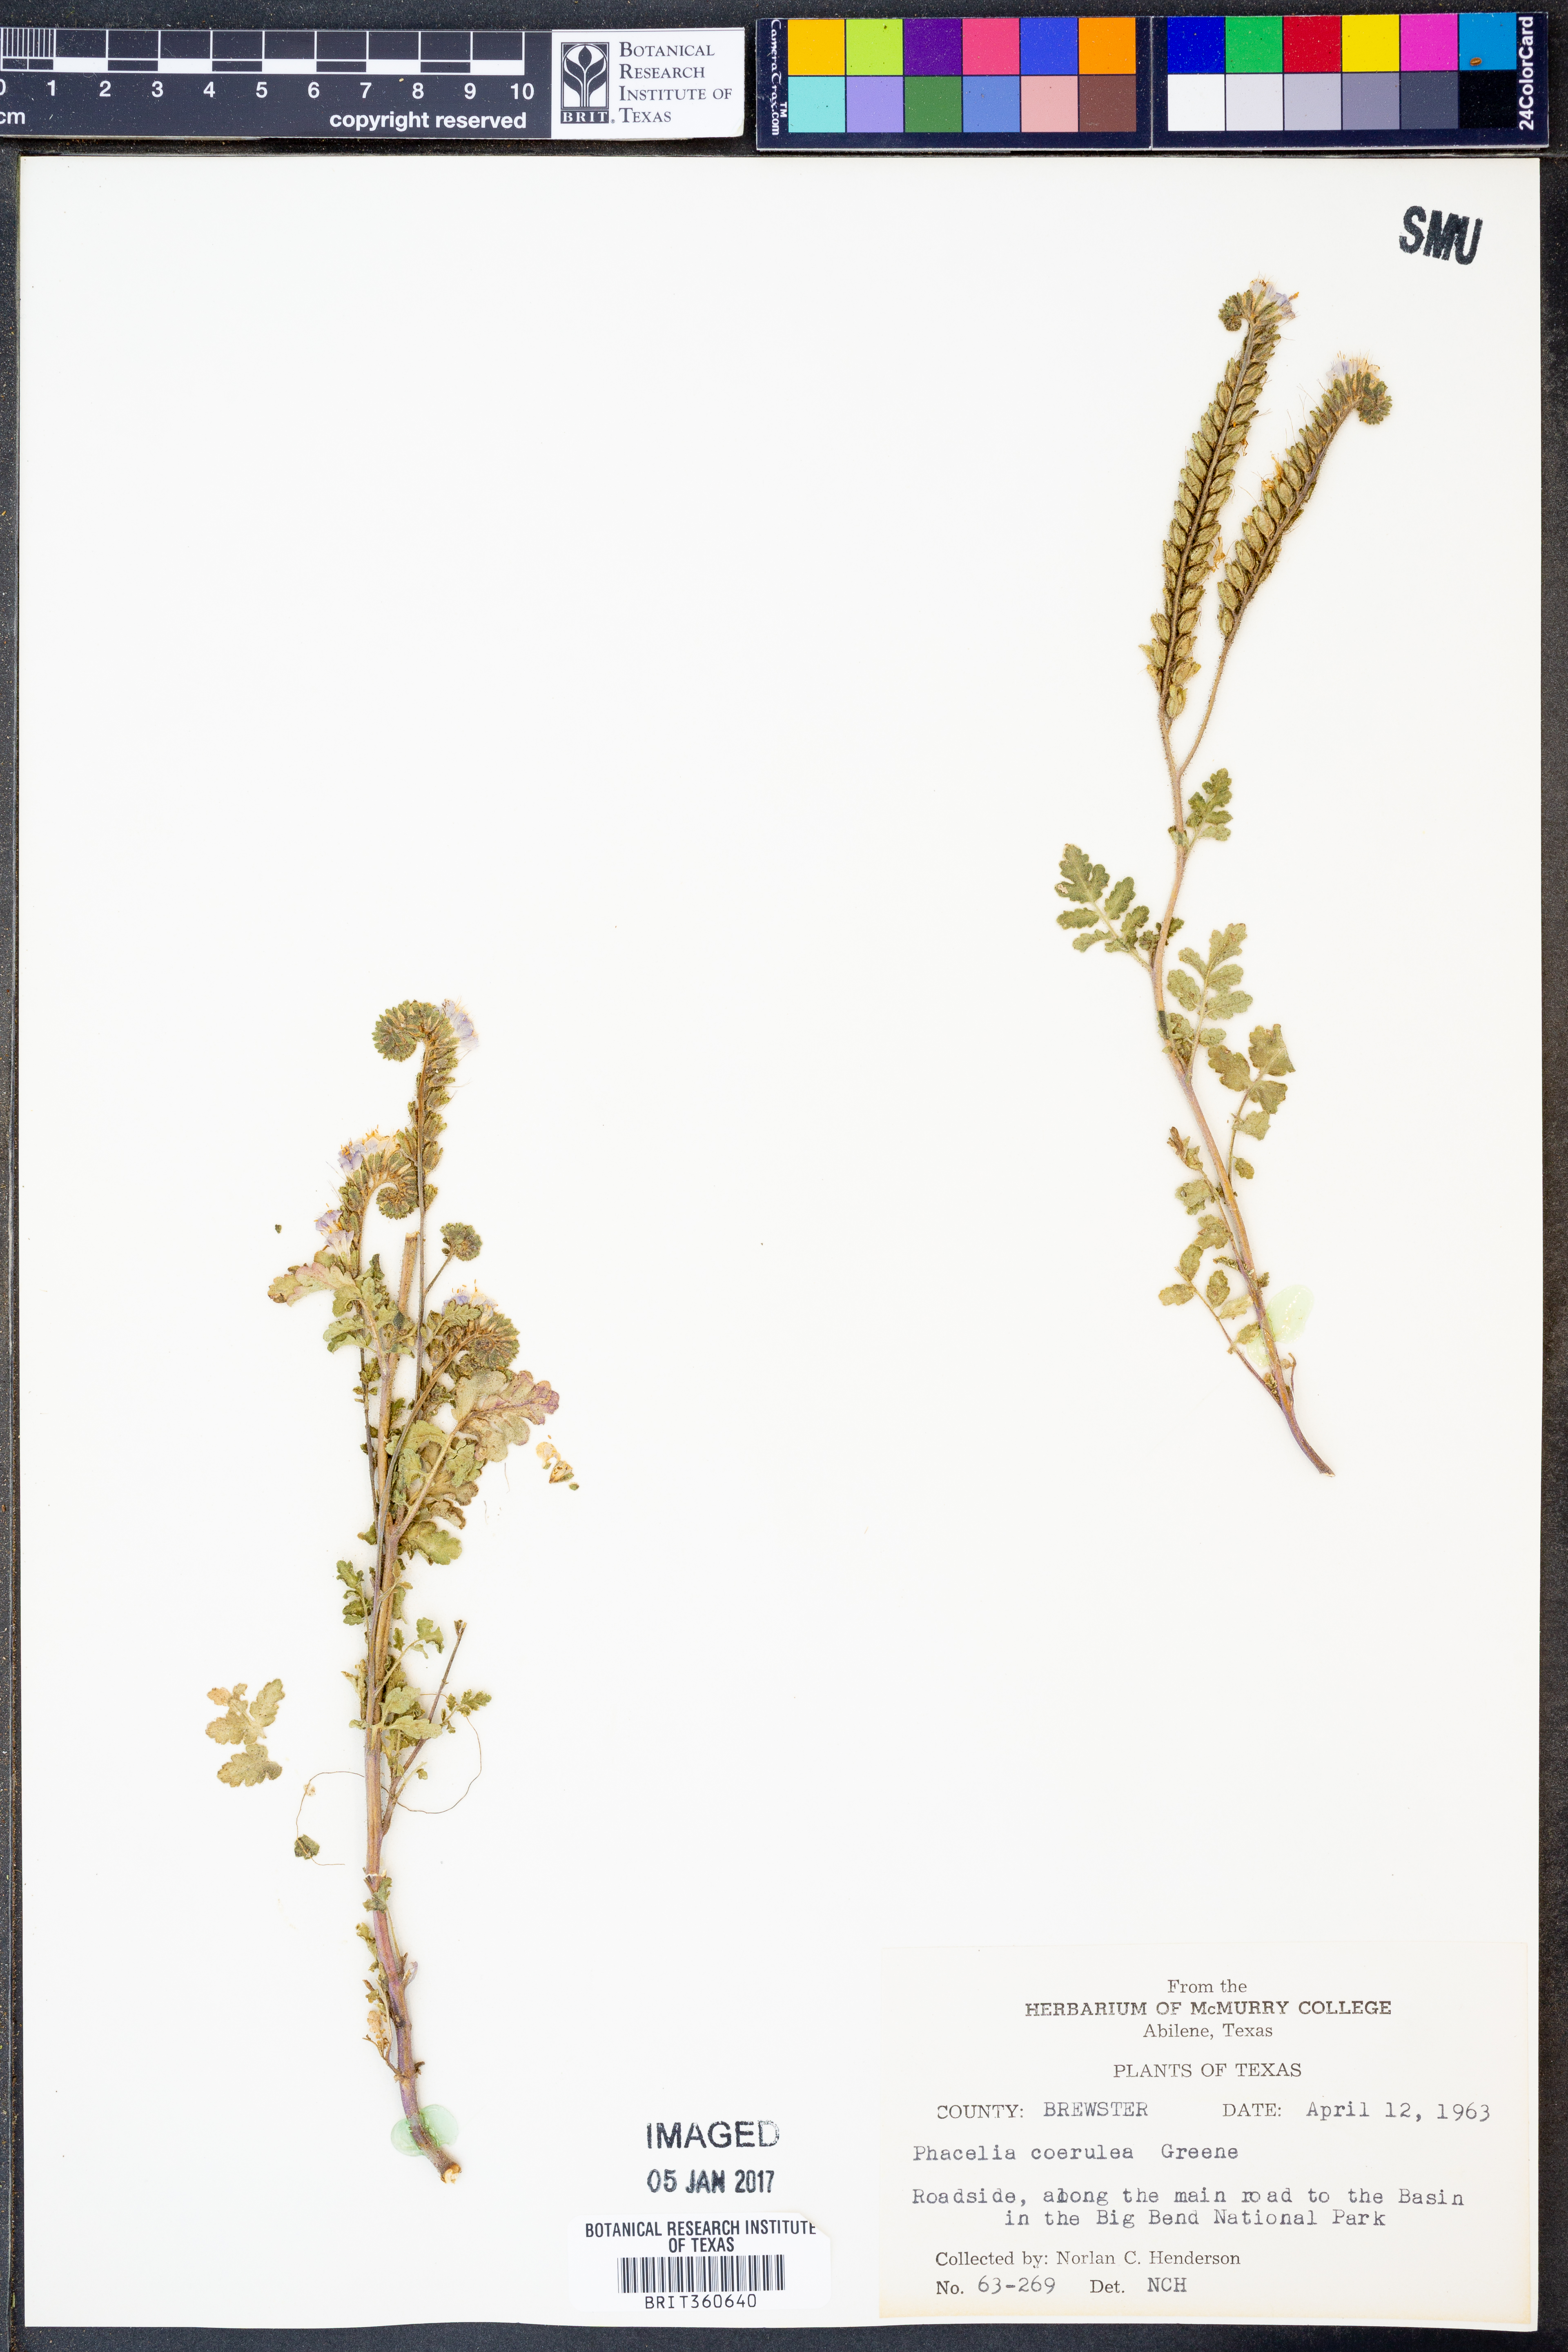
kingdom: Plantae
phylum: Tracheophyta
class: Magnoliopsida
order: Boraginales
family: Hydrophyllaceae
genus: Phacelia
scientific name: Phacelia coerulea
